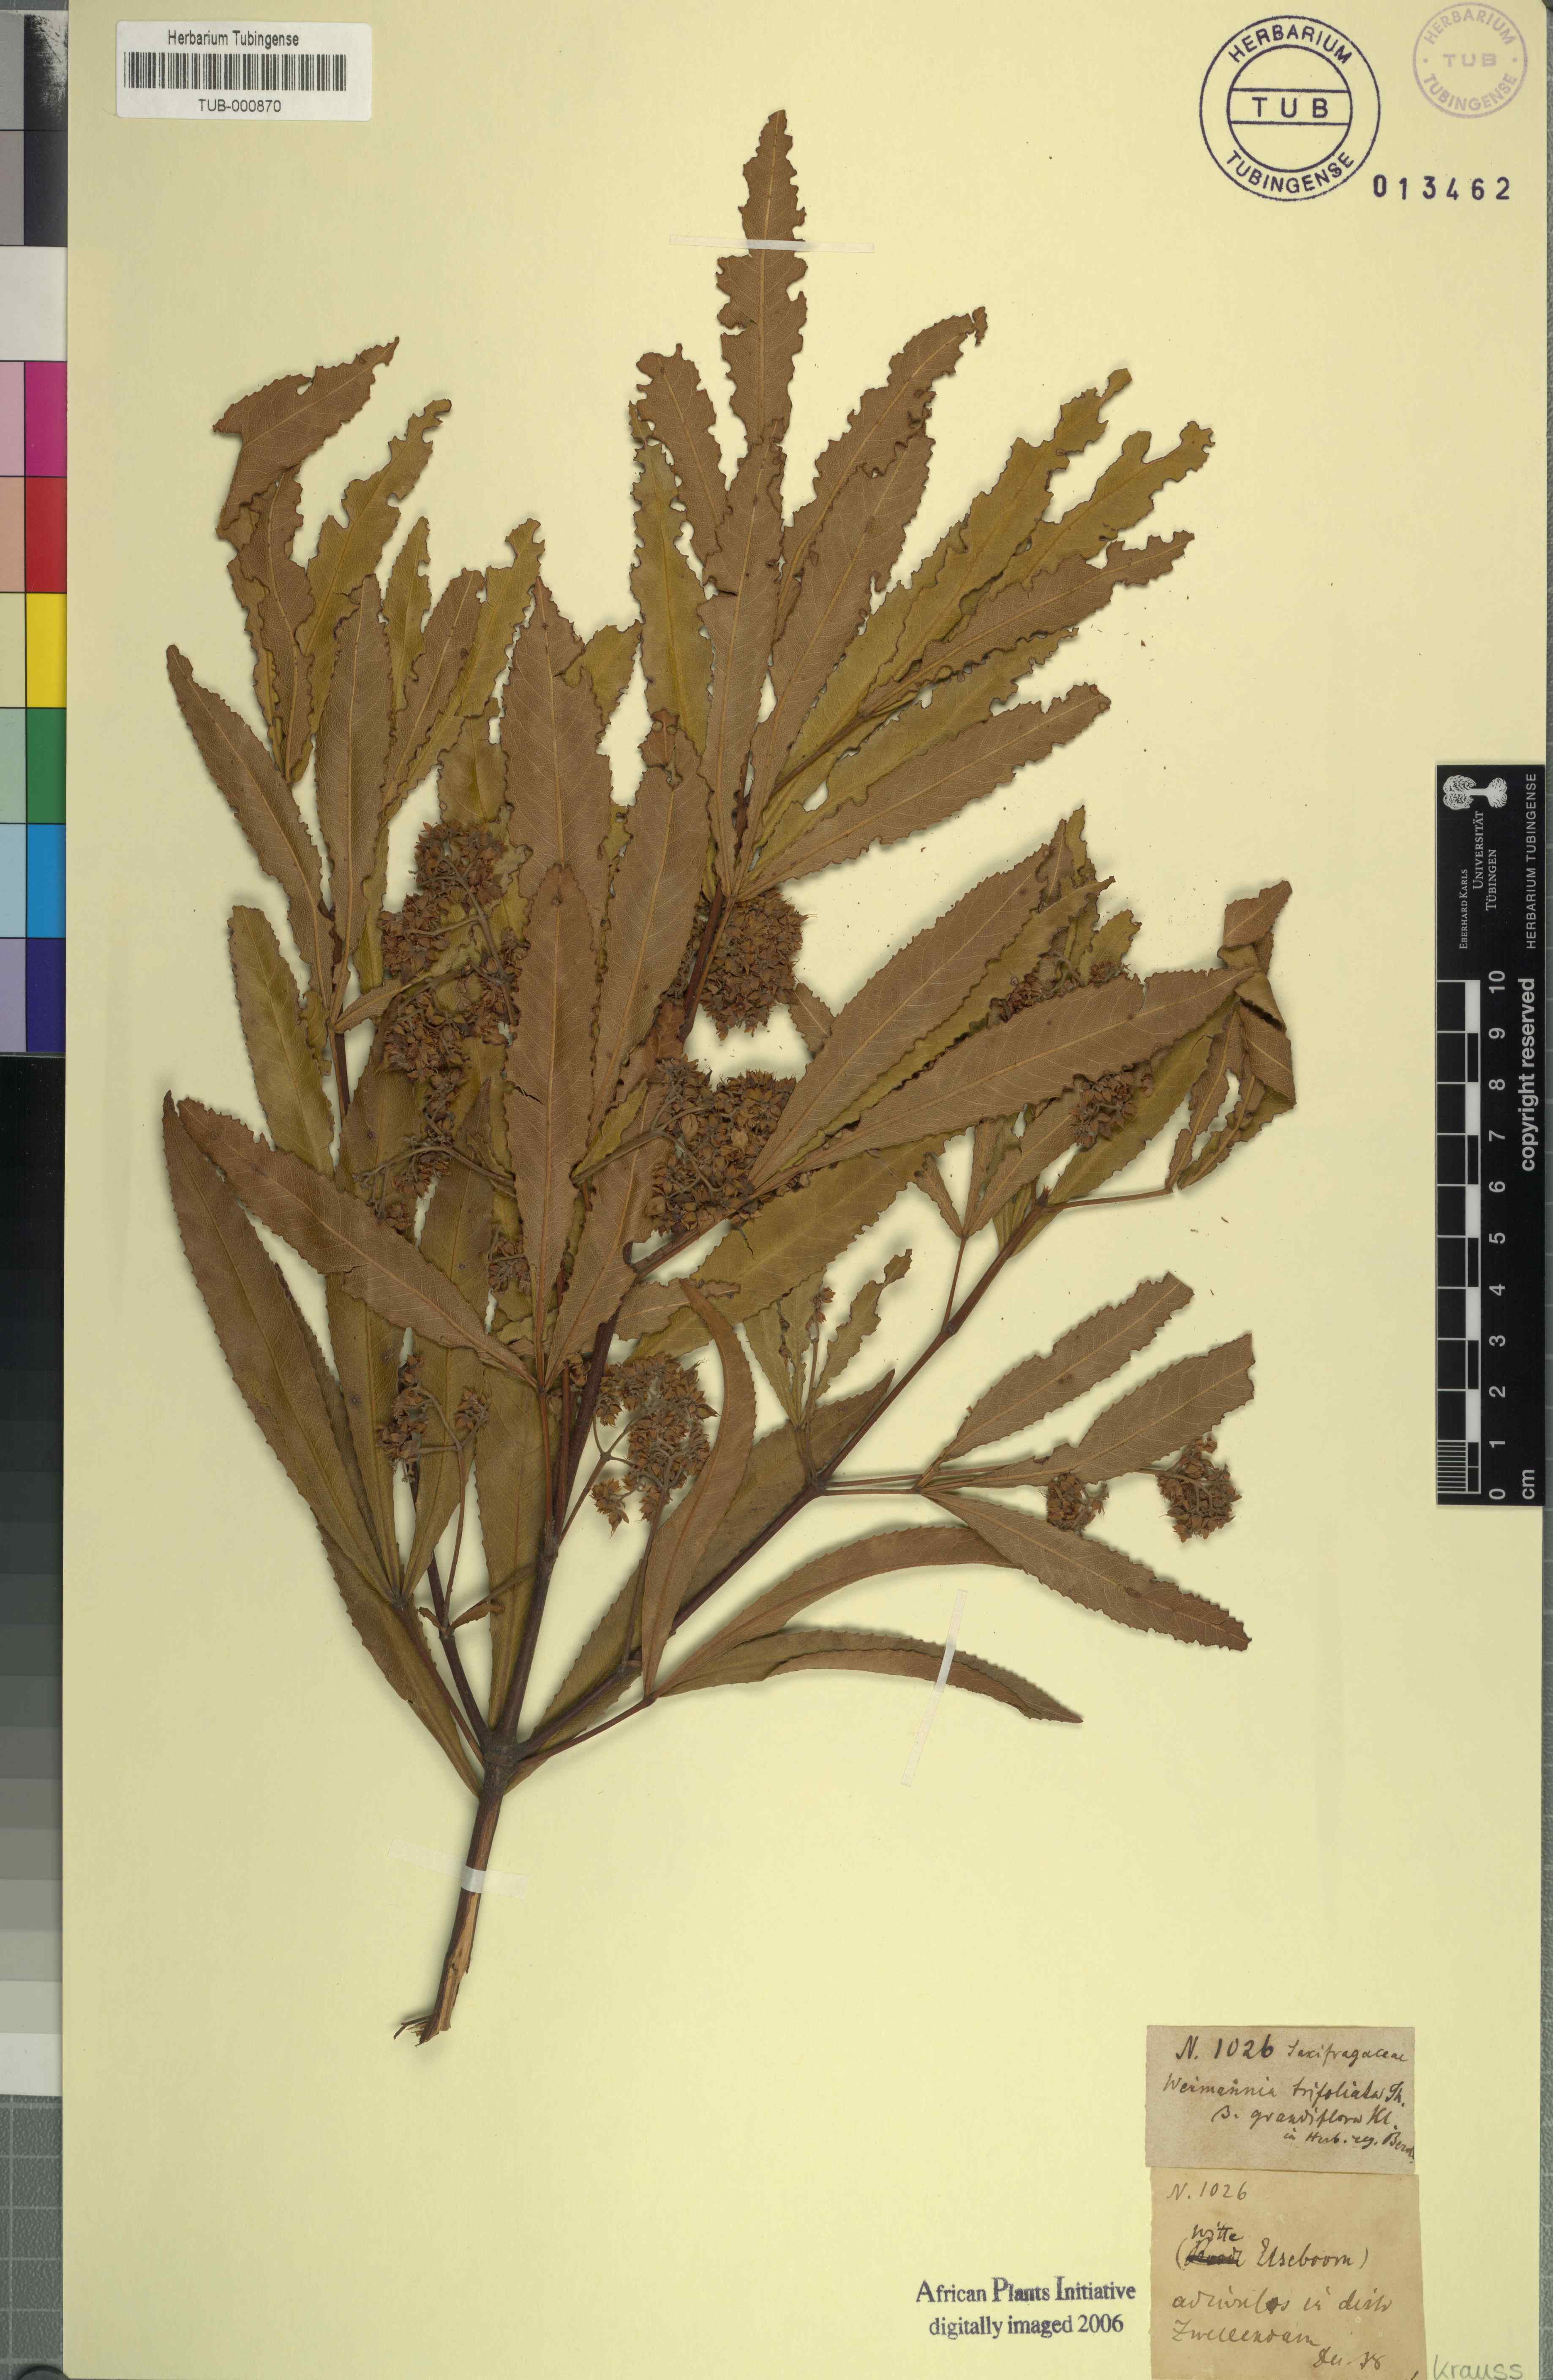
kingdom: Plantae
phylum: Tracheophyta
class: Magnoliopsida
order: Oxalidales
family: Cunoniaceae
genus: Platylophus
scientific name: Platylophus trifoliatus
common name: White alder
